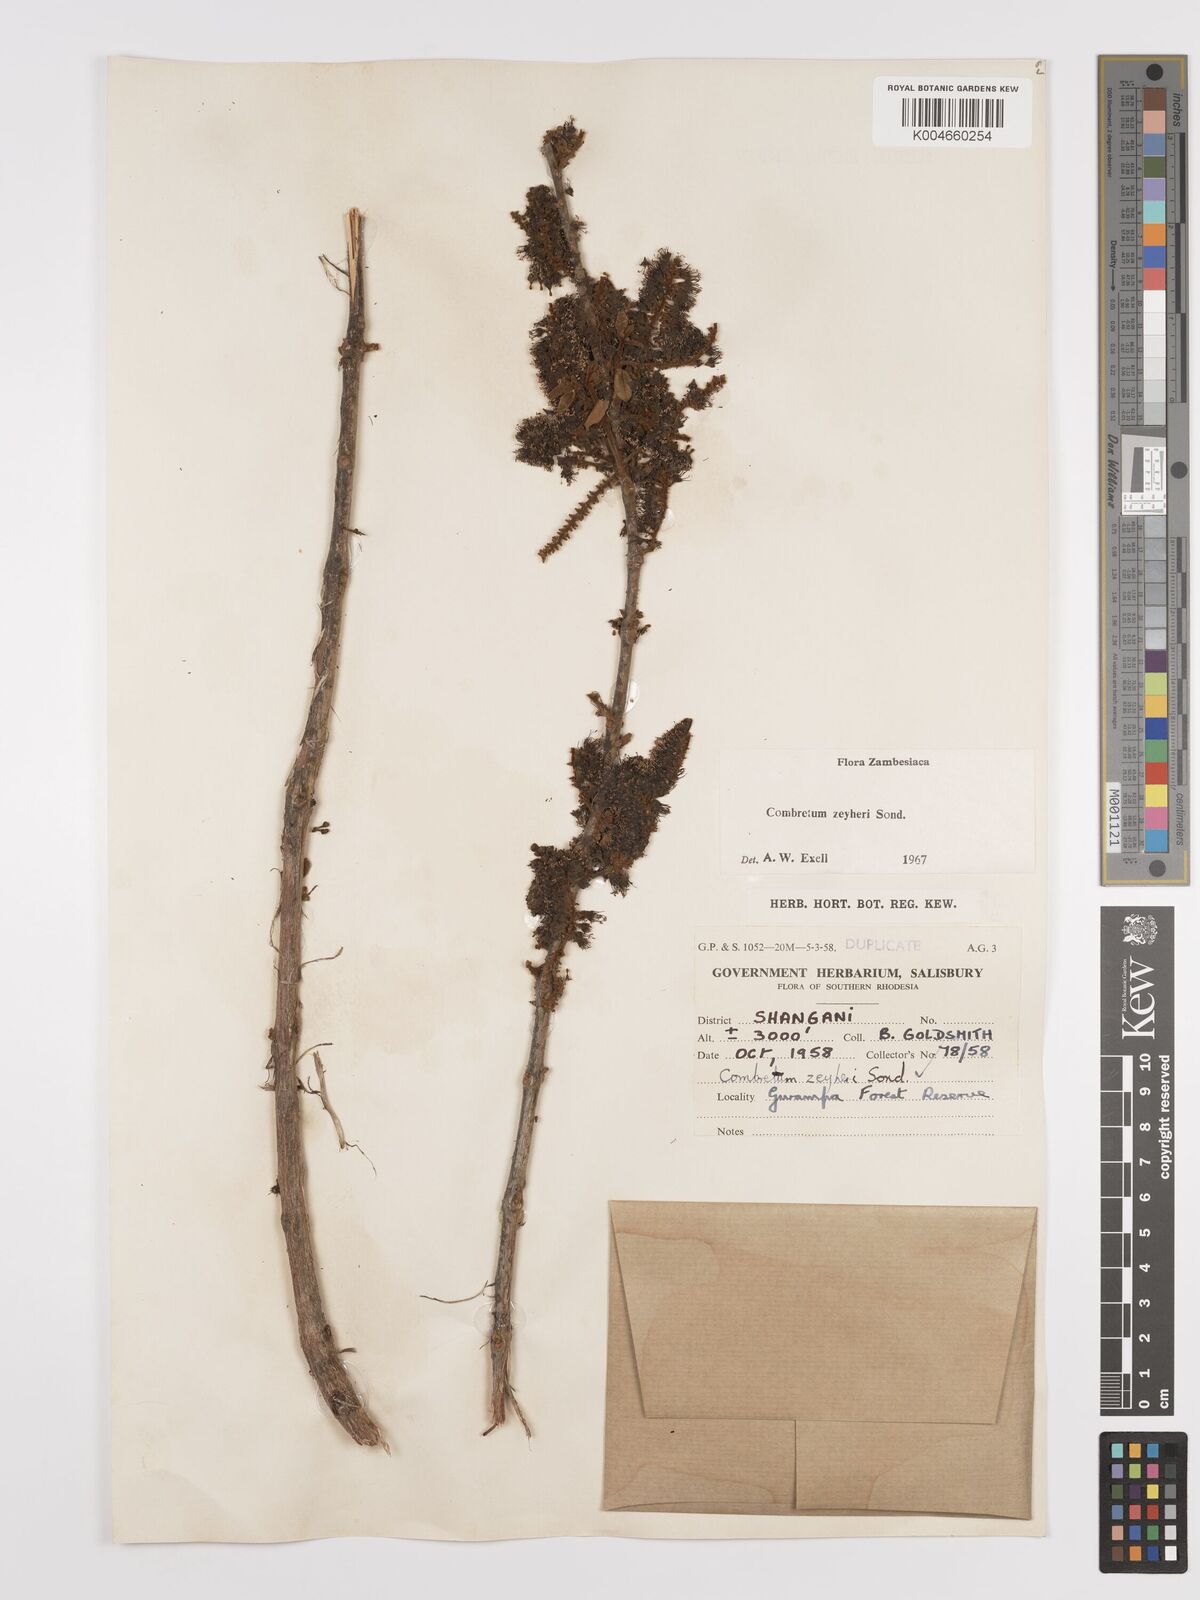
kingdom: Plantae
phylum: Tracheophyta
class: Magnoliopsida
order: Myrtales
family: Combretaceae
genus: Combretum
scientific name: Combretum zeyheri
